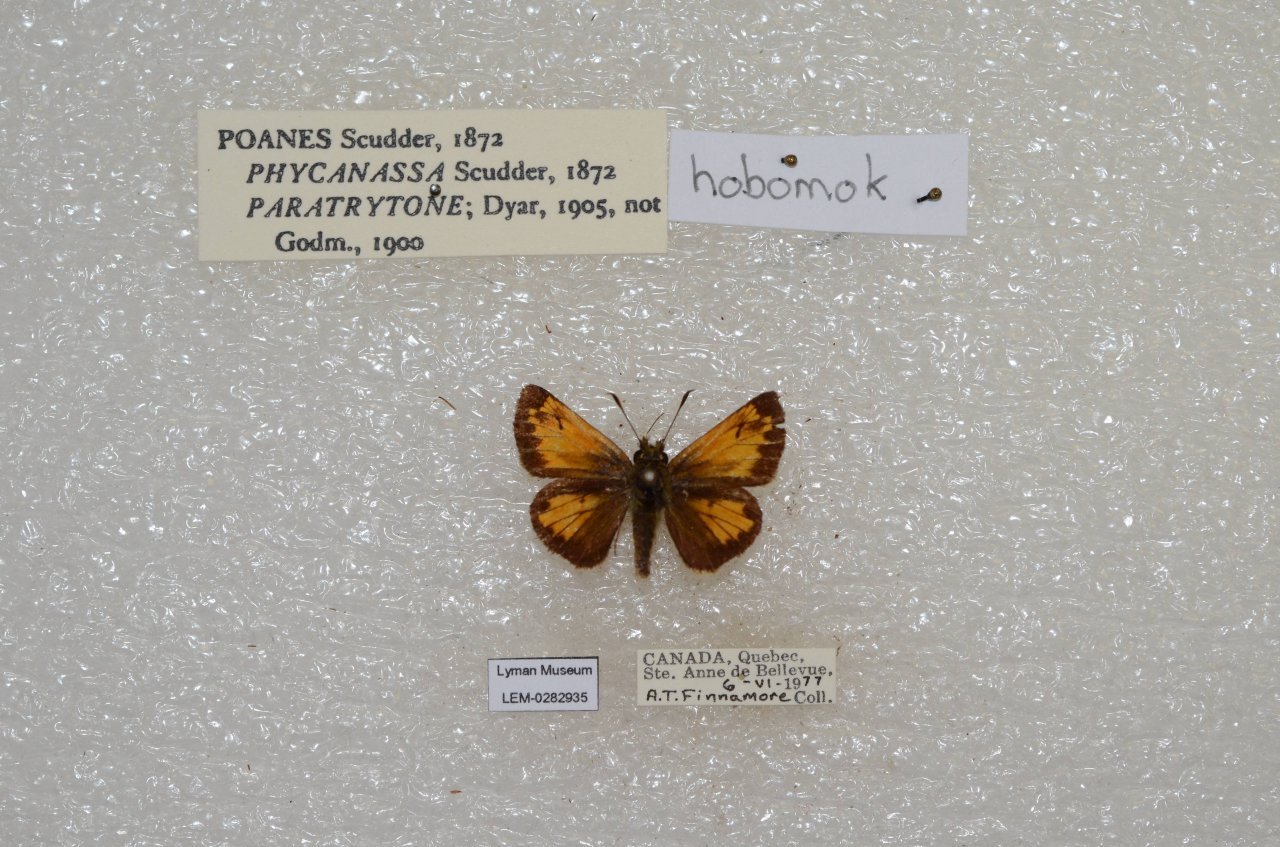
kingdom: Animalia
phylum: Arthropoda
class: Insecta
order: Lepidoptera
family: Hesperiidae
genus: Lon
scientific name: Lon hobomok
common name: Hobomok Skipper
